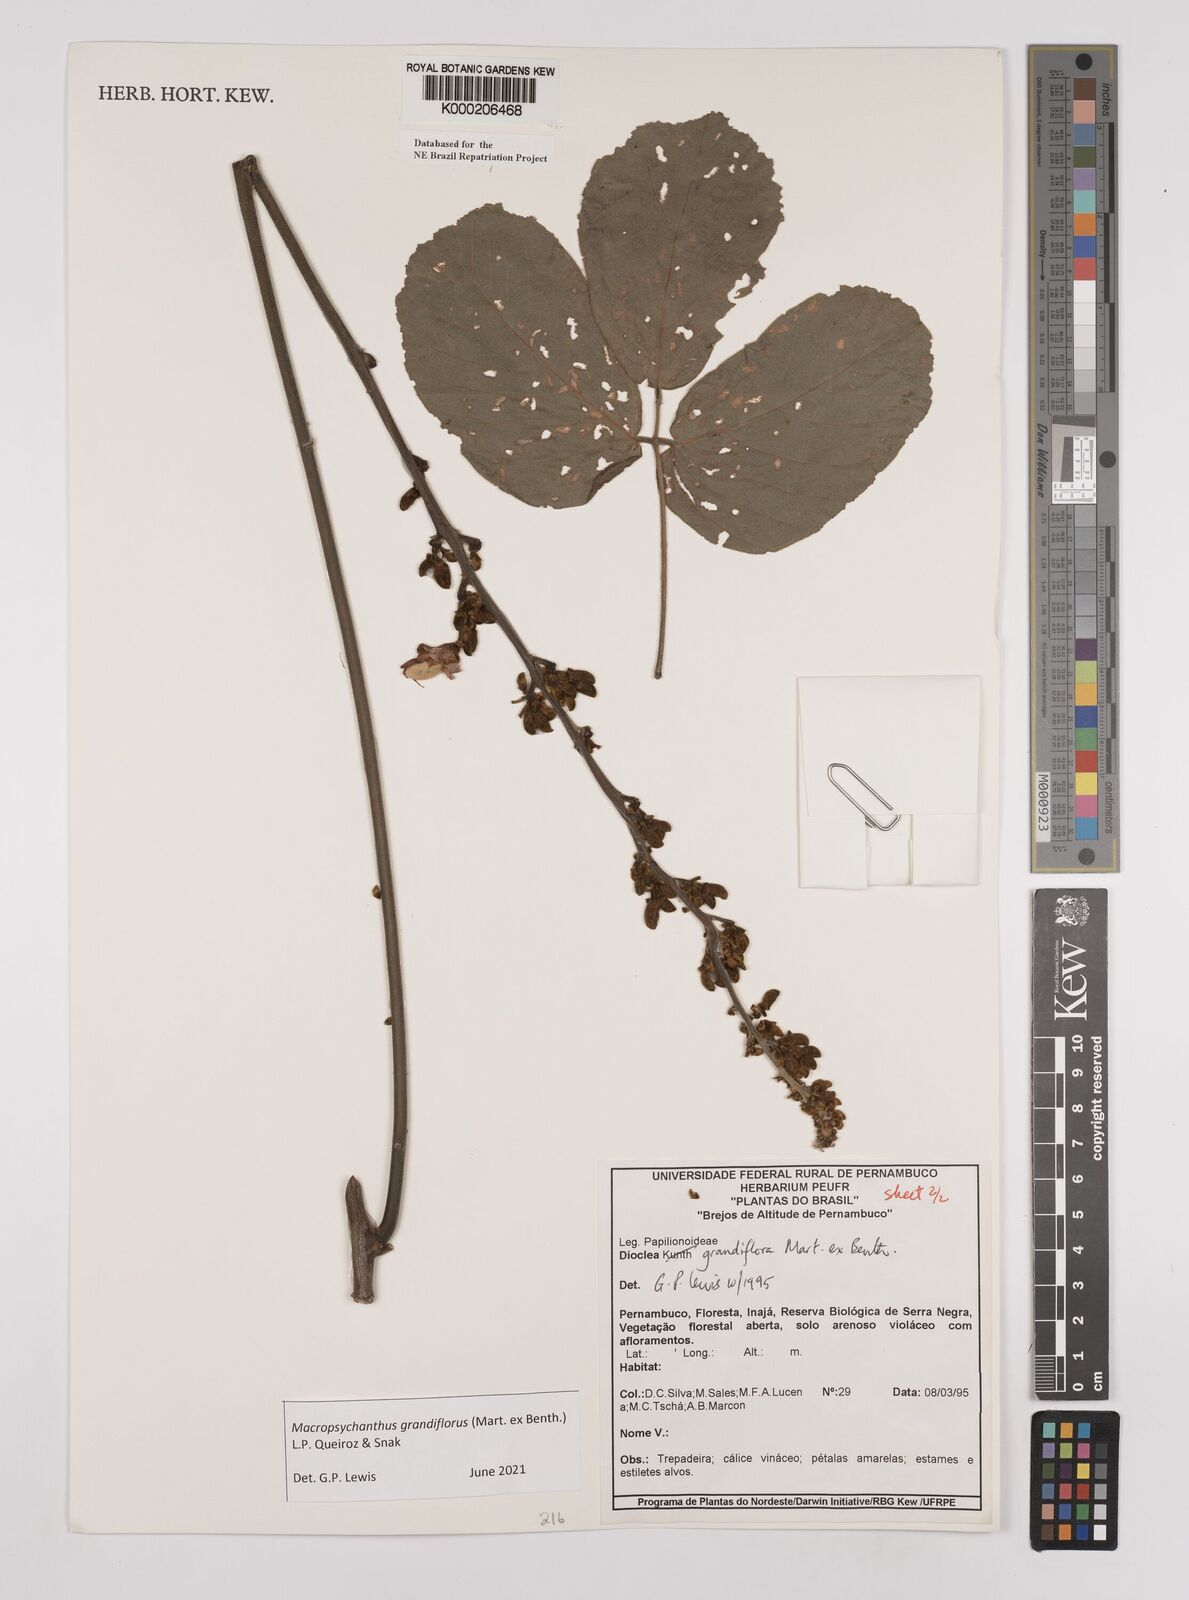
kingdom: Plantae
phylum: Tracheophyta
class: Magnoliopsida
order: Fabales
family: Fabaceae
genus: Macropsychanthus
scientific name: Macropsychanthus grandiflorus
